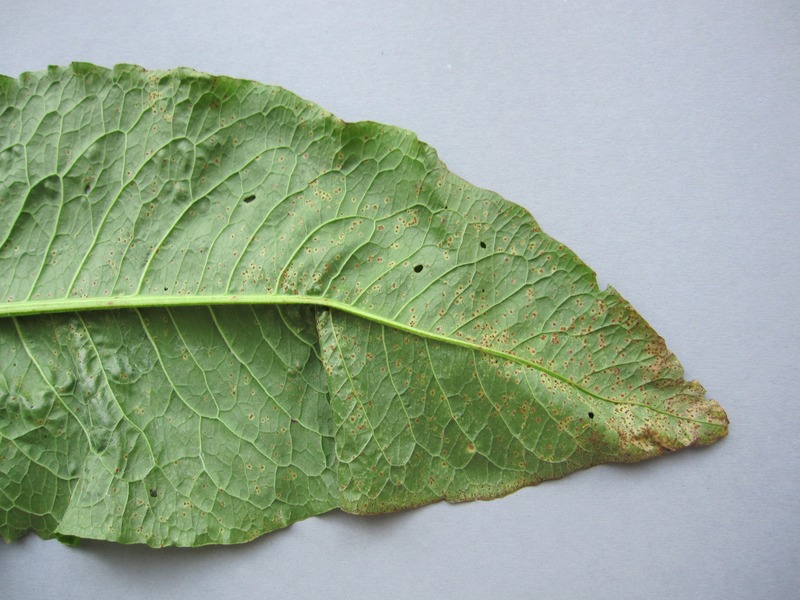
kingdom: Fungi
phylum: Basidiomycota
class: Pucciniomycetes
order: Pucciniales
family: Pucciniaceae
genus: Uromyces
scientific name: Uromyces rumicis
